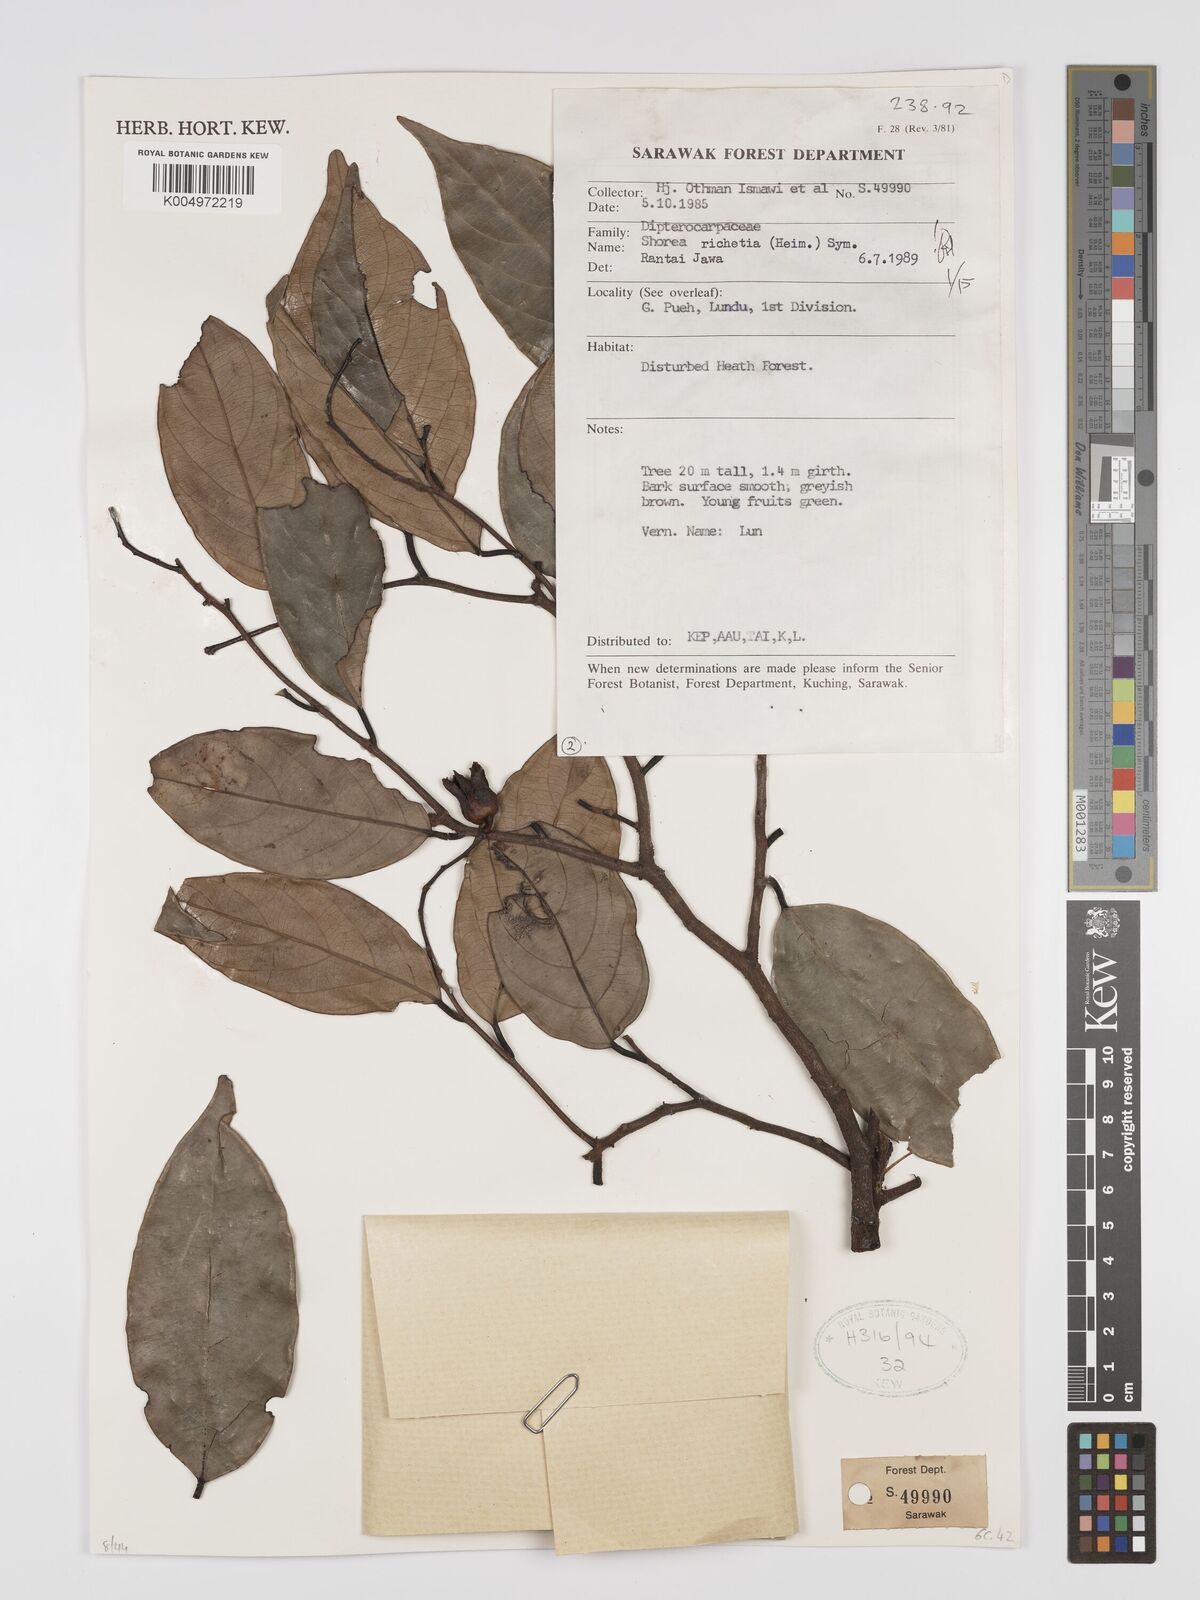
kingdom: Plantae
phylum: Tracheophyta
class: Magnoliopsida
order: Malvales
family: Dipterocarpaceae
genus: Shorea
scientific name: Shorea richetia
